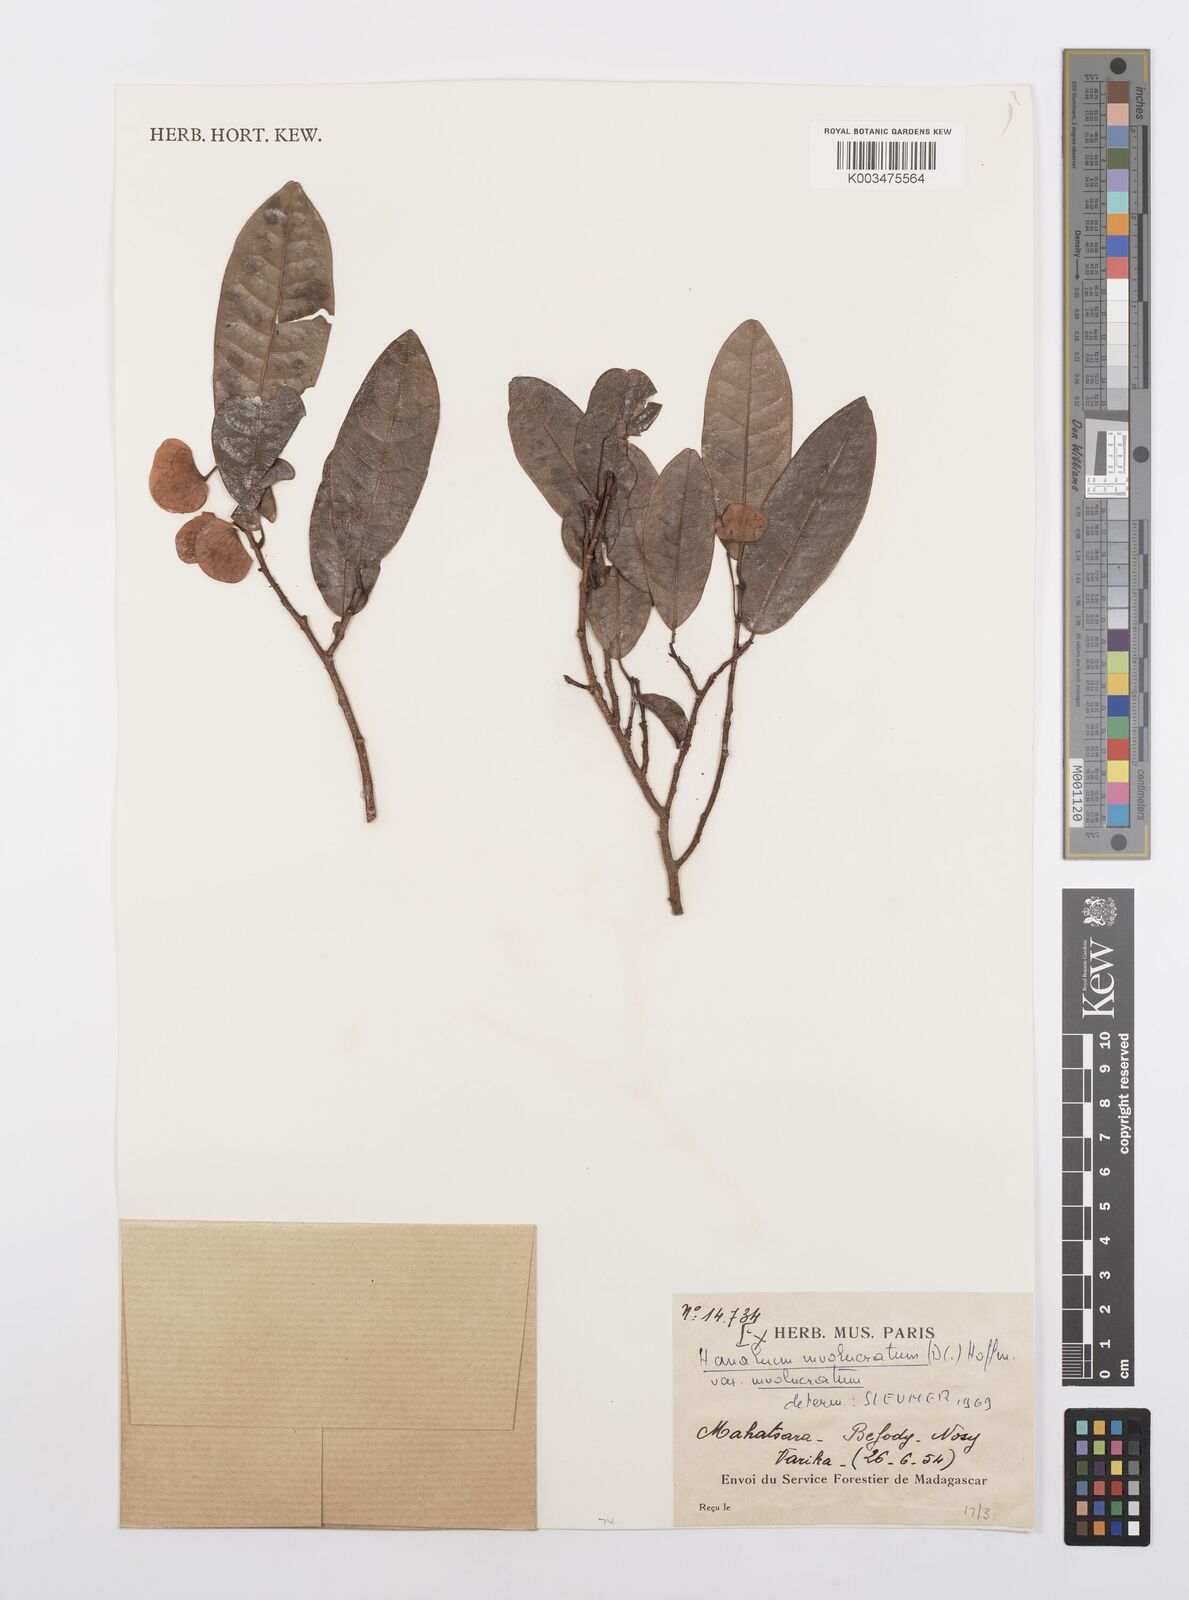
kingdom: Plantae
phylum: Tracheophyta
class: Magnoliopsida
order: Malpighiales
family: Salicaceae
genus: Homalium
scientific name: Homalium involucratum
